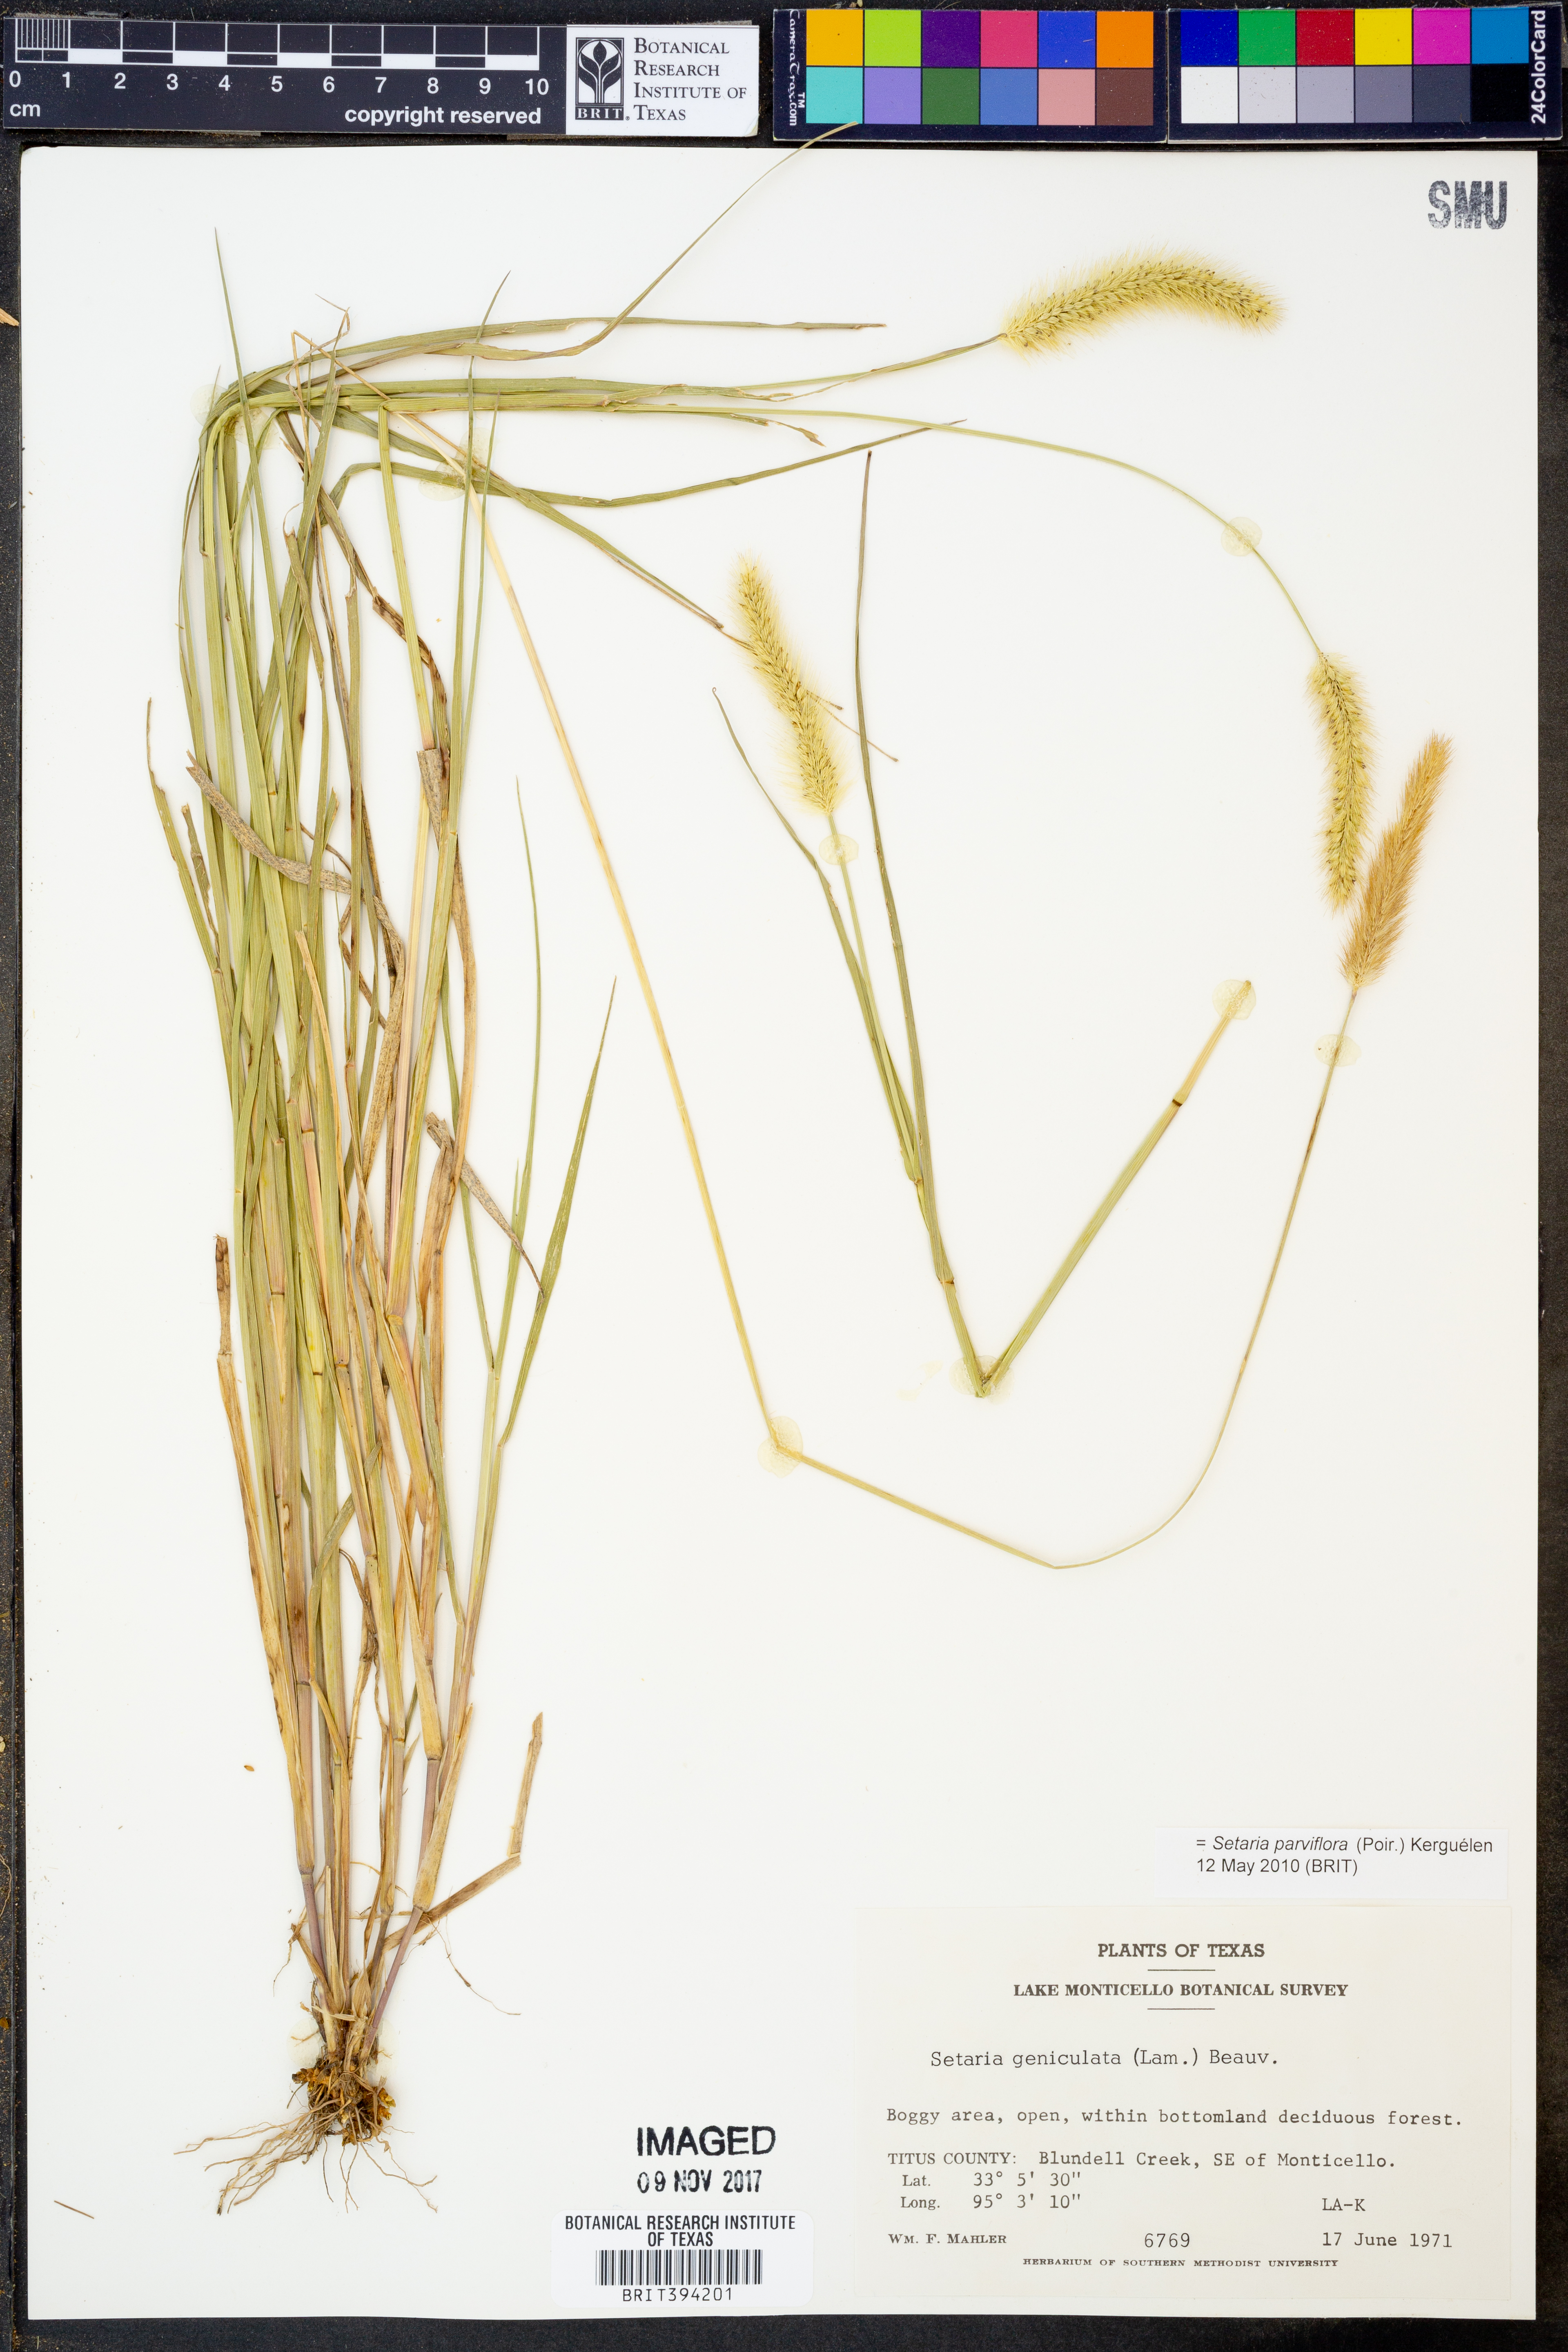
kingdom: Plantae
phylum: Tracheophyta
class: Liliopsida
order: Poales
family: Poaceae
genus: Setaria
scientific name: Setaria parviflora
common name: Knotroot bristle-grass
